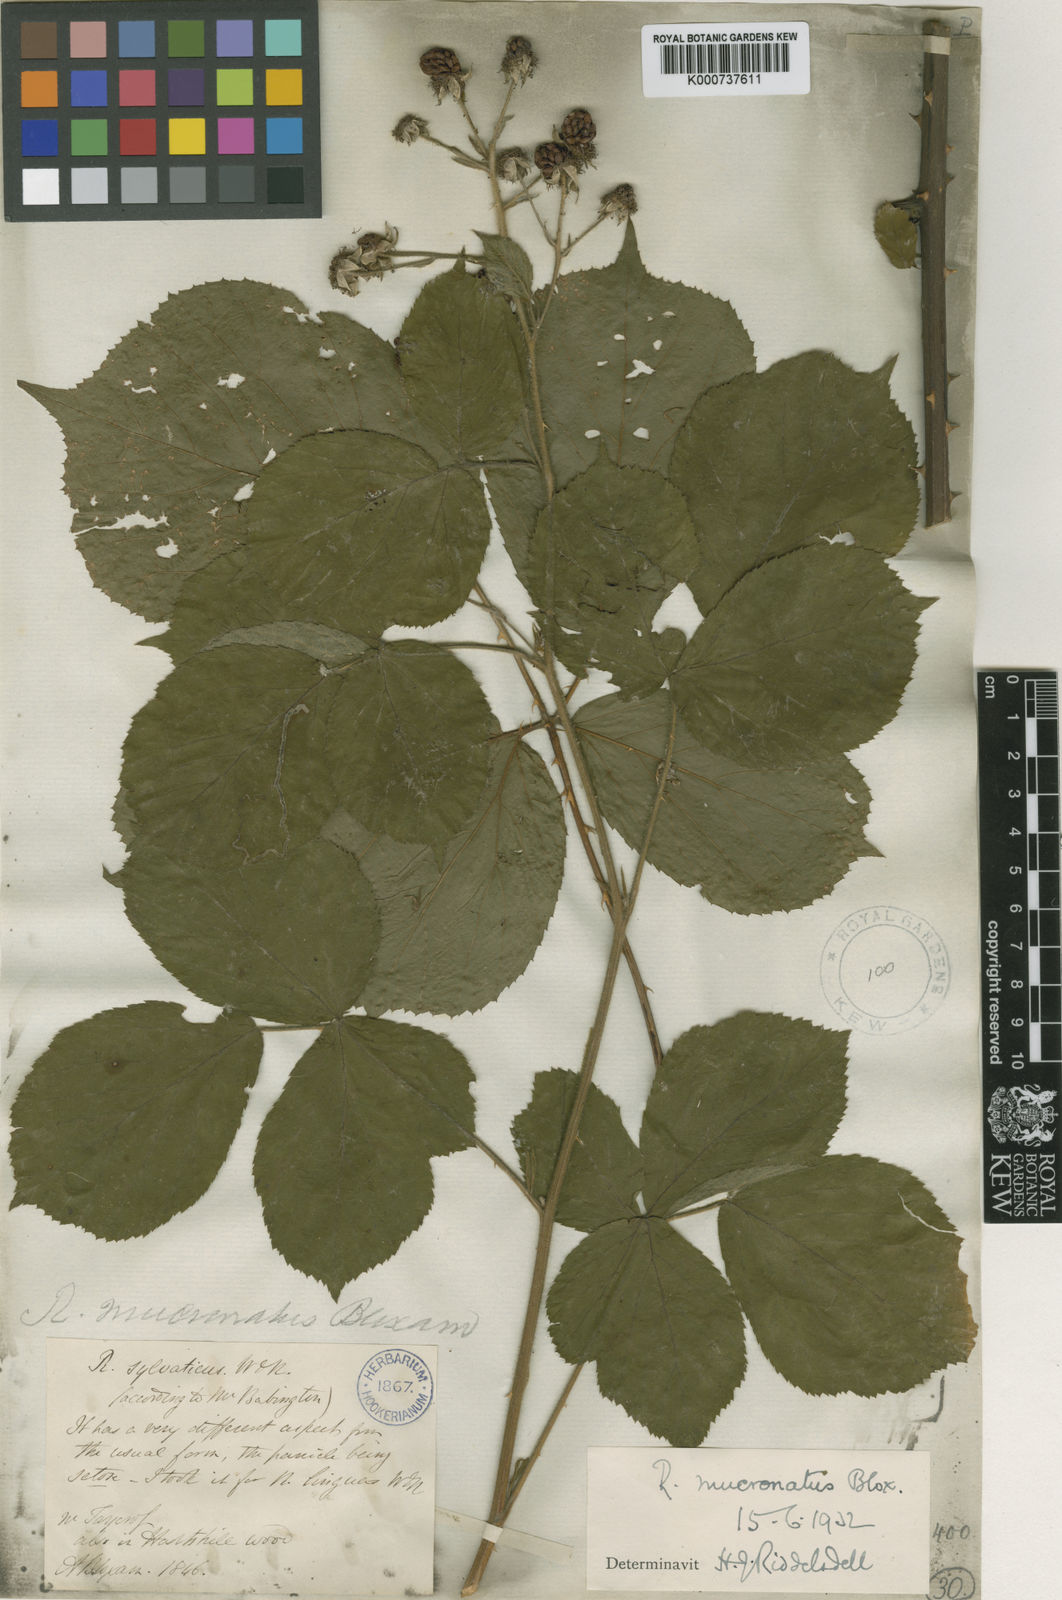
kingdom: Plantae
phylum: Tracheophyta
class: Magnoliopsida
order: Rosales
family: Rosaceae
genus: Rubus
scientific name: Rubus mucronulatus
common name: Cuspidate-leaved bramble
